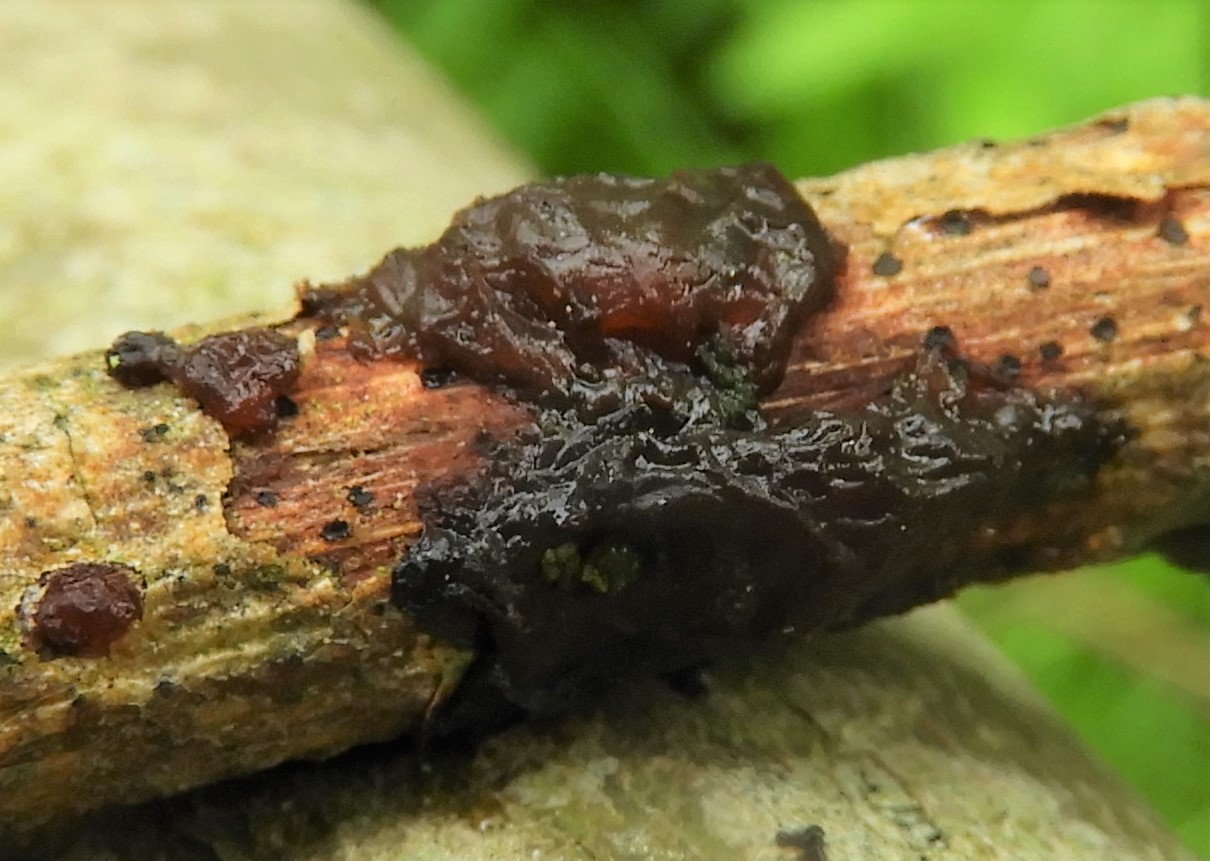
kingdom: Fungi
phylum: Basidiomycota
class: Agaricomycetes
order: Auriculariales
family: Auriculariaceae
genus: Exidia
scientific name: Exidia recisa
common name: pile-bævretop
